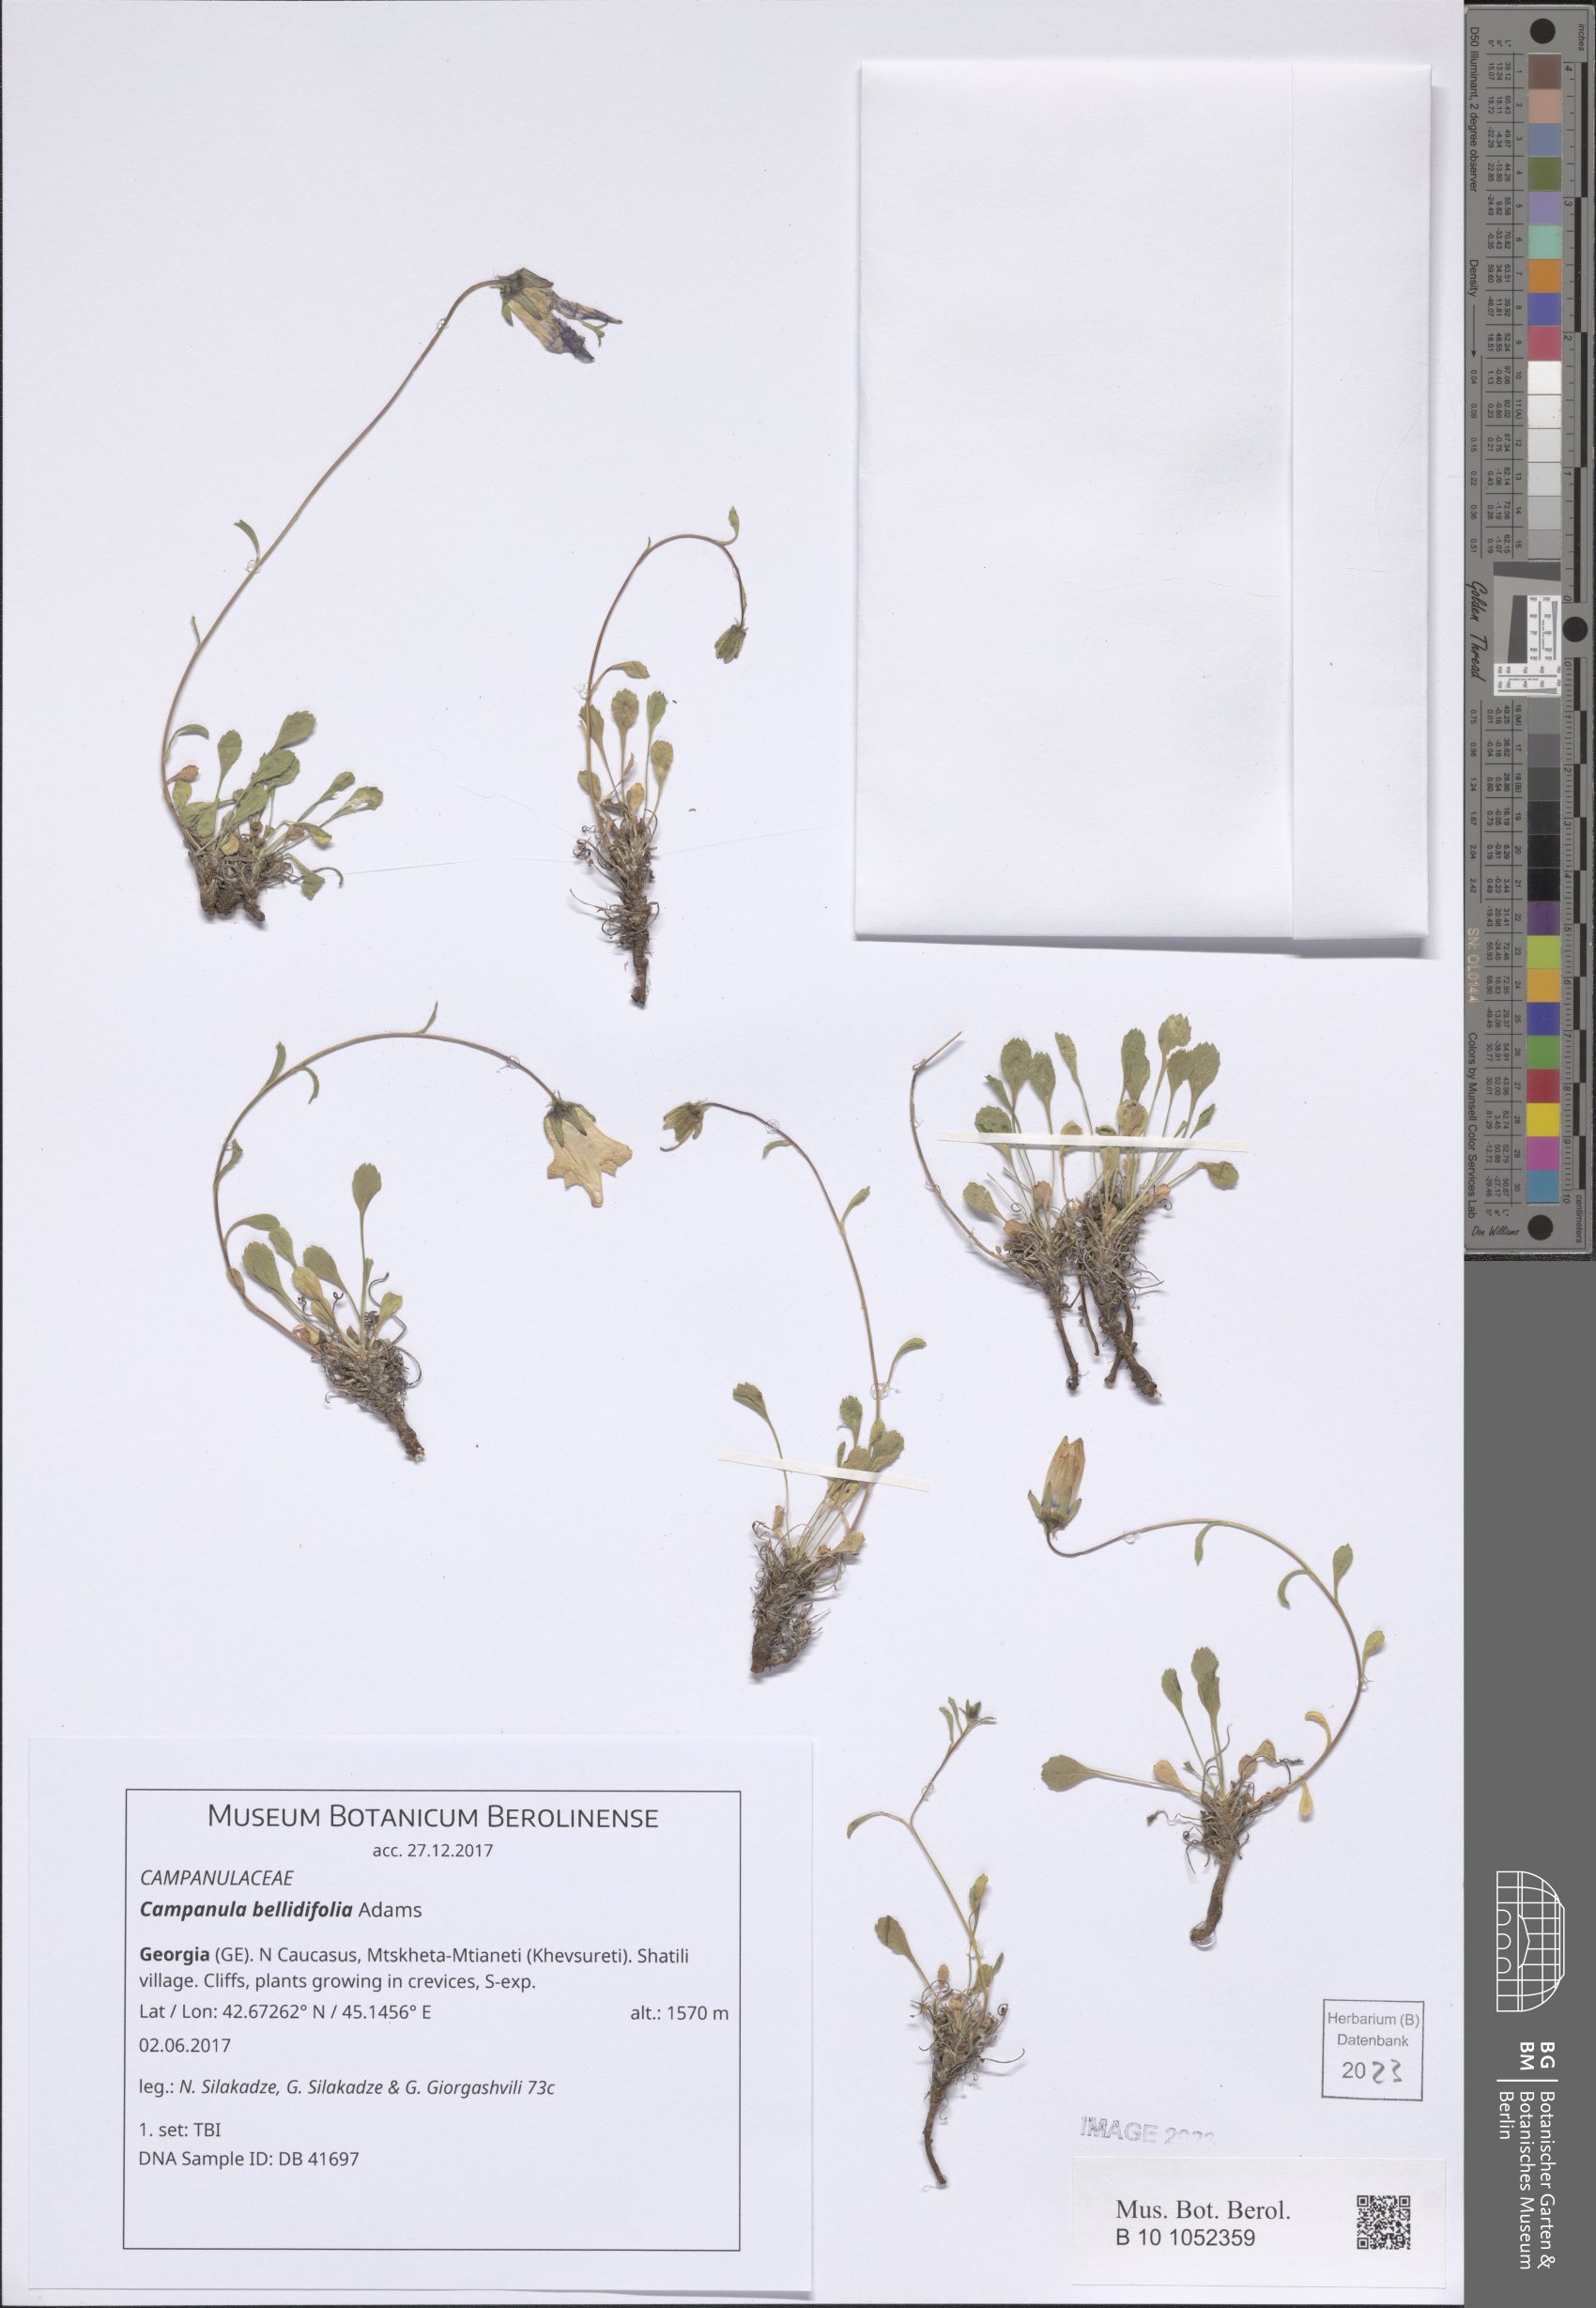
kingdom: Plantae
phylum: Tracheophyta
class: Magnoliopsida
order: Asterales
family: Campanulaceae
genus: Campanula
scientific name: Campanula bellidifolia
